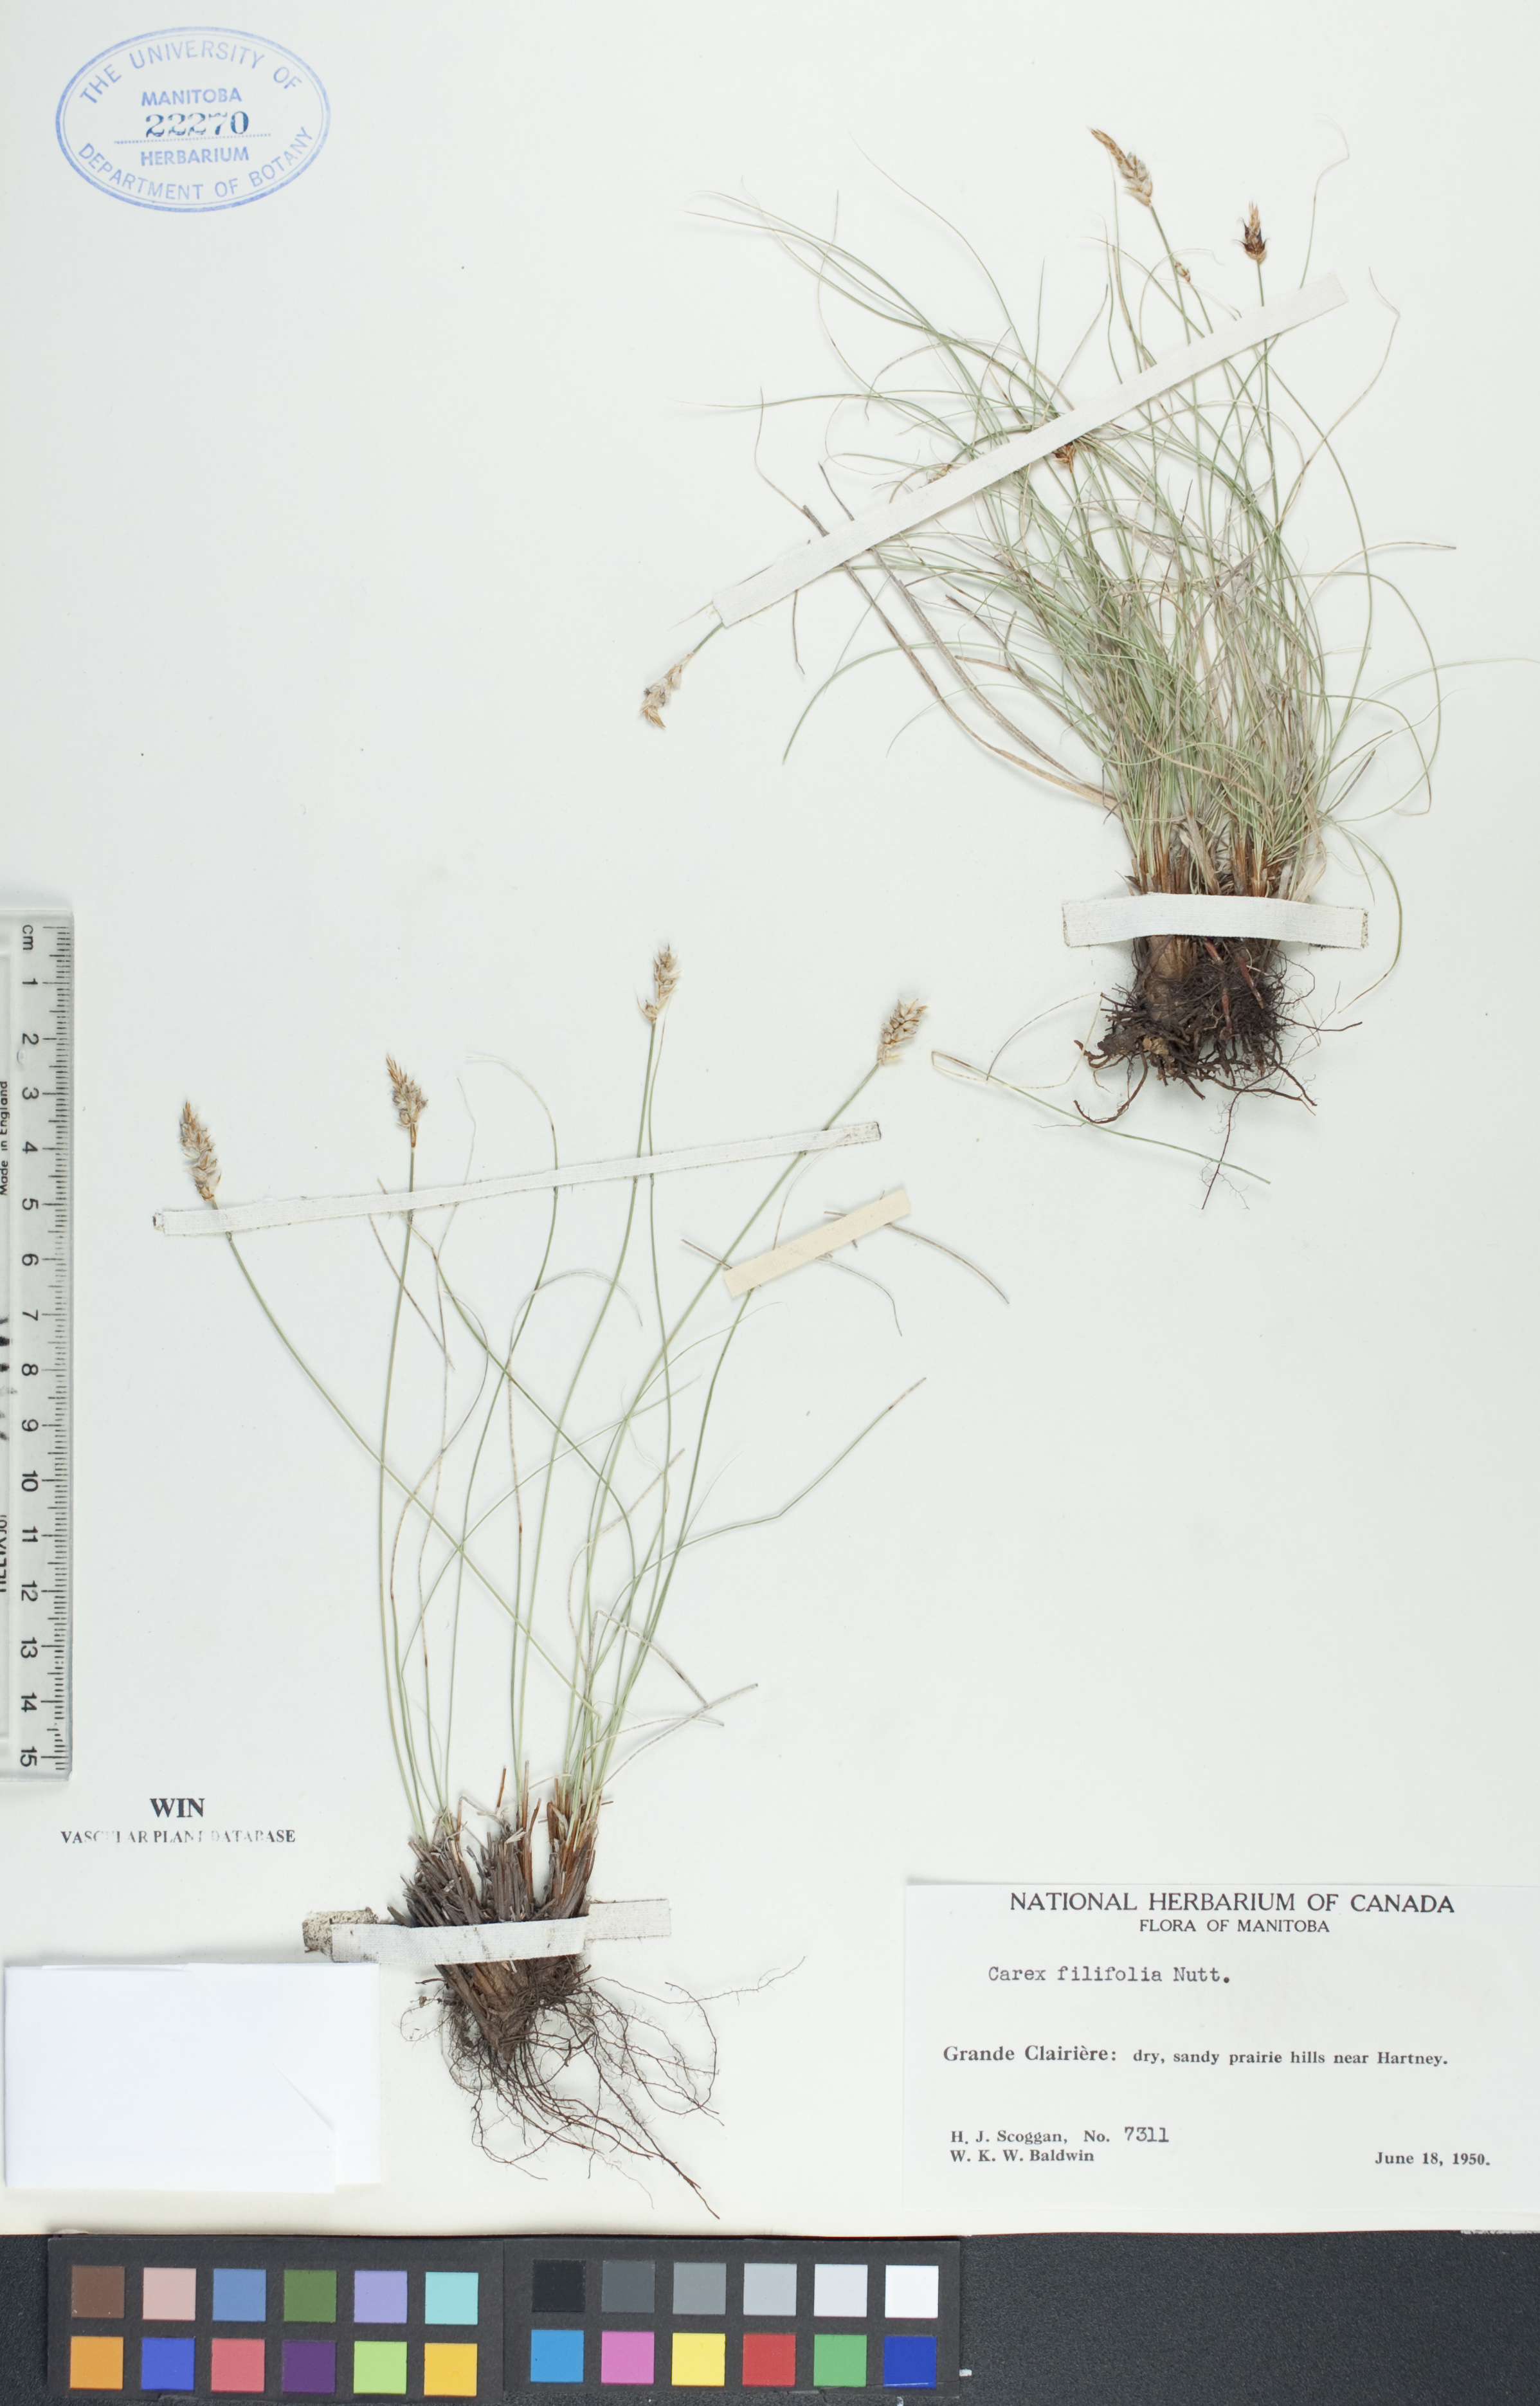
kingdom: Plantae
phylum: Tracheophyta
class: Liliopsida
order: Poales
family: Cyperaceae
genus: Carex
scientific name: Carex filifolia
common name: Threadleaf sedge
